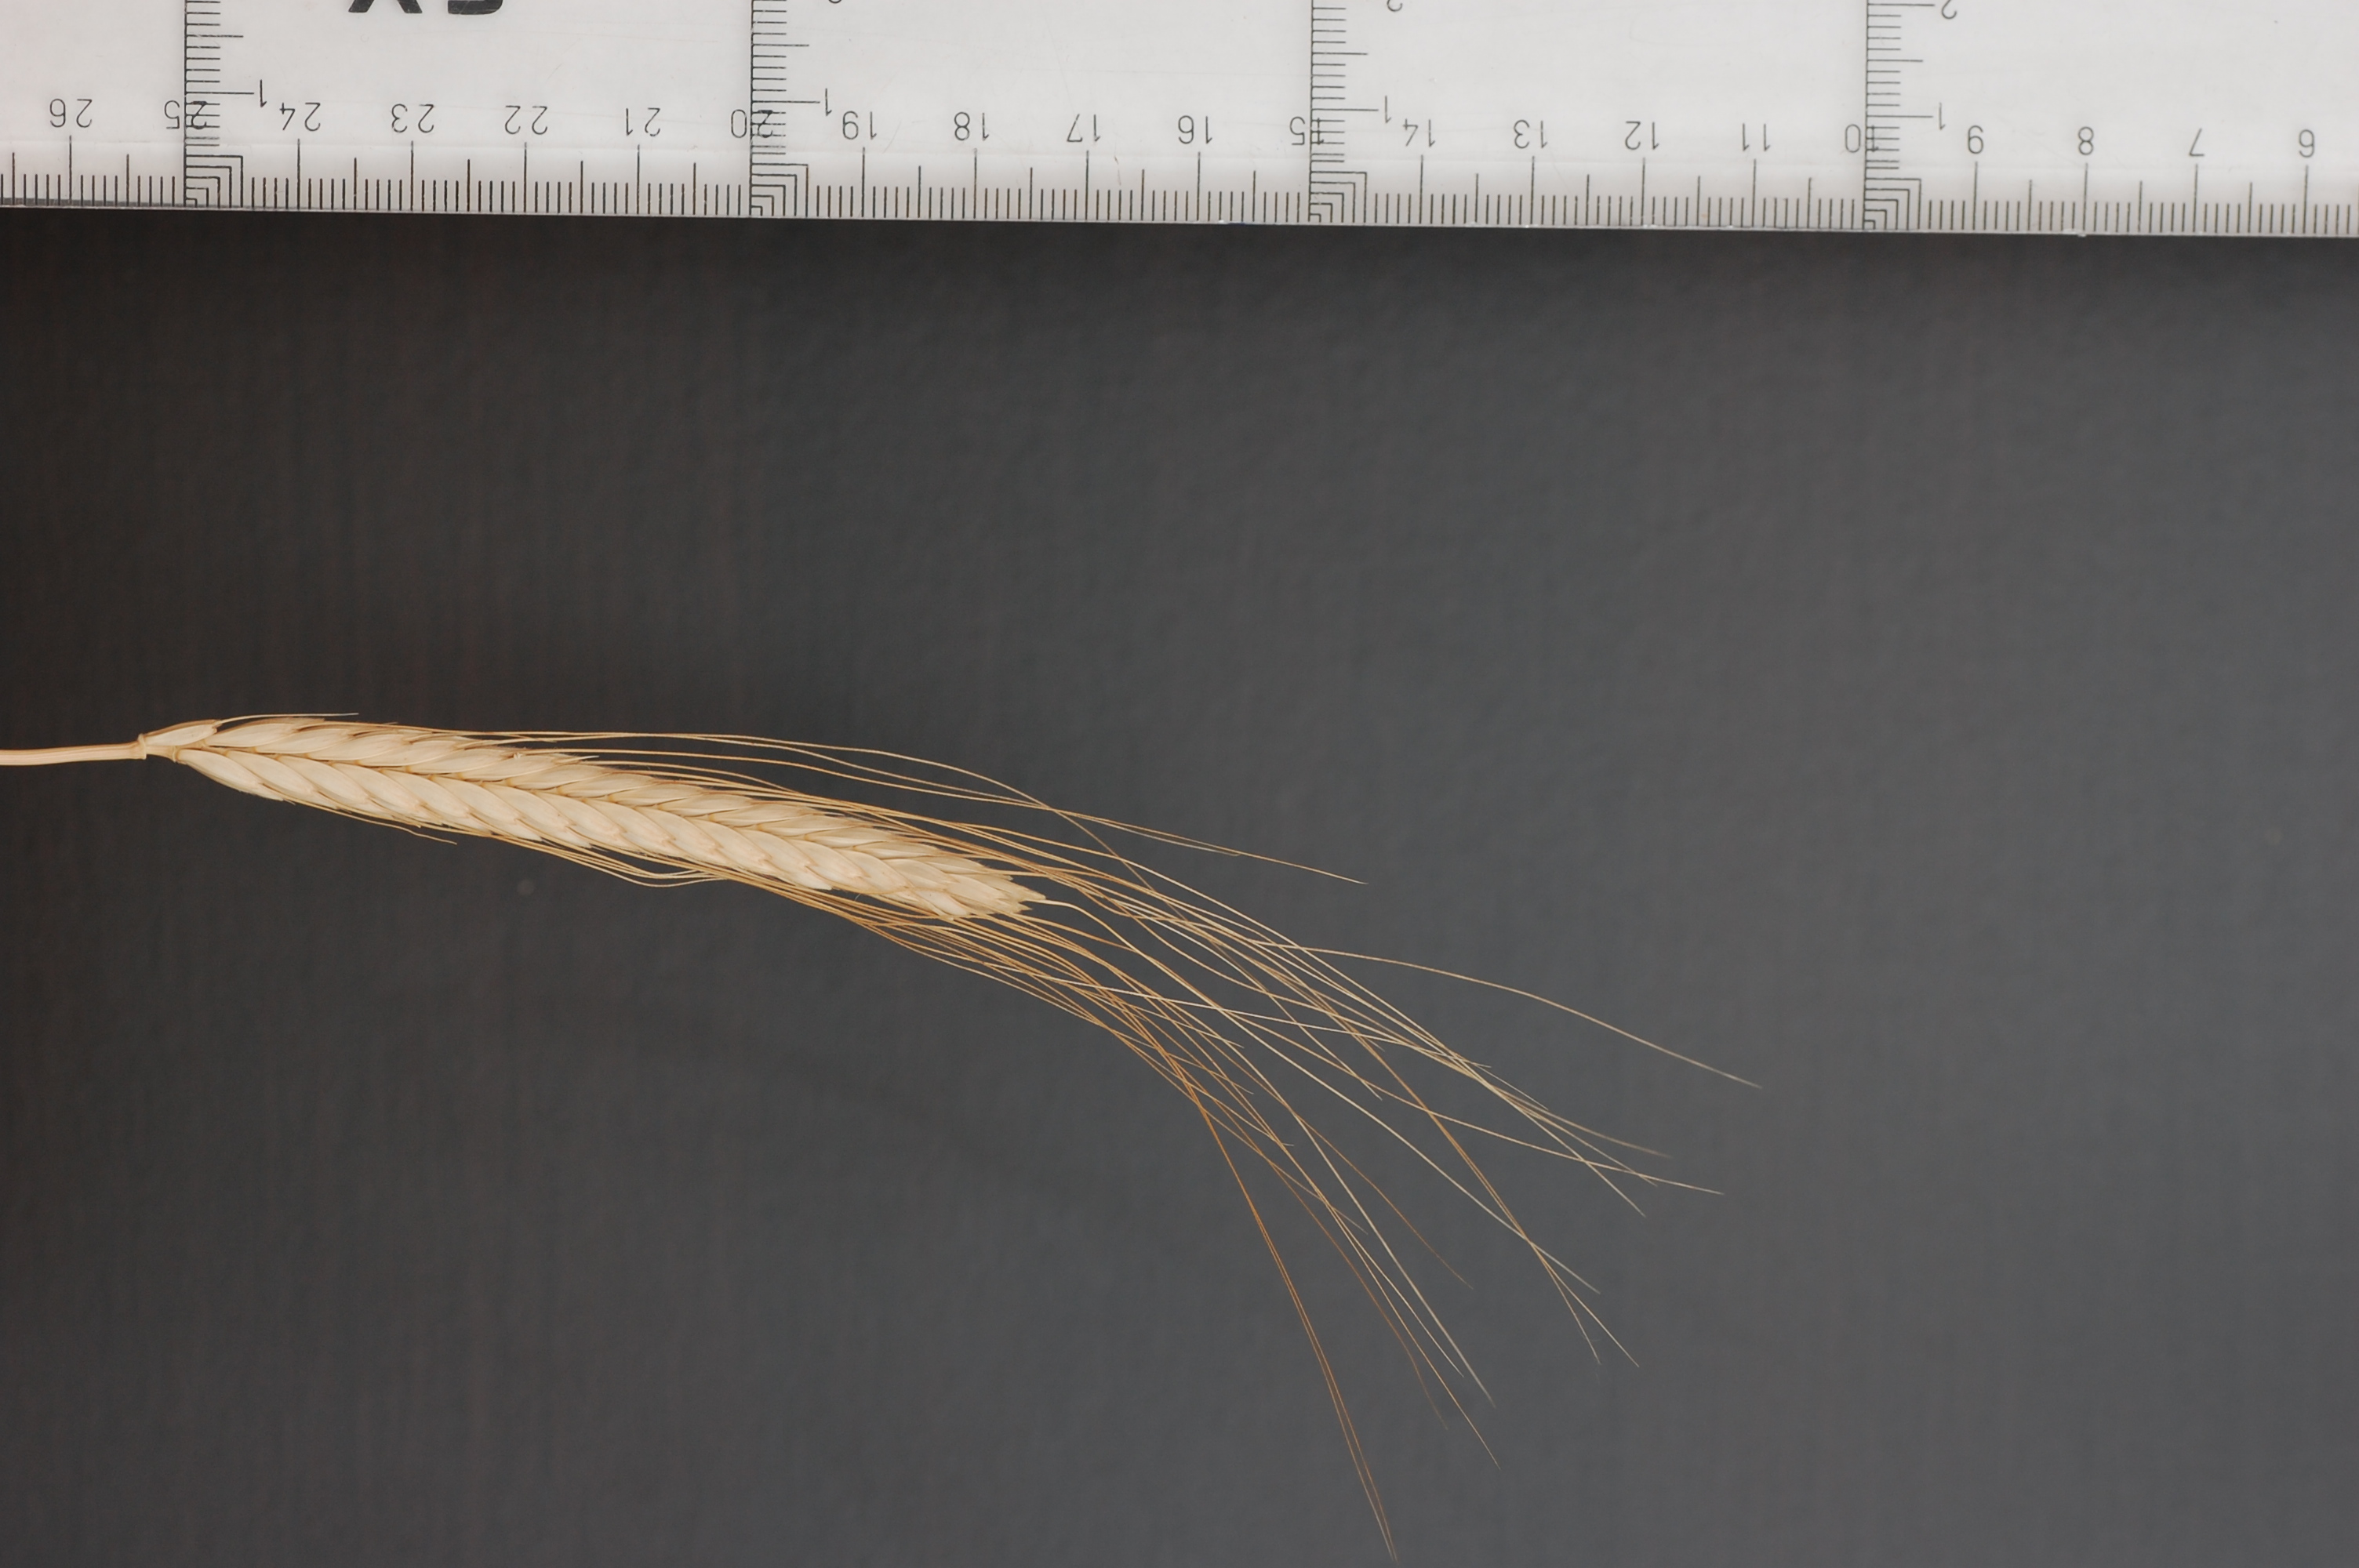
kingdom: Plantae
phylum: Tracheophyta
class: Liliopsida
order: Poales
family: Poaceae
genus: Triticum
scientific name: Triticum monococcum
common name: Einkorn
